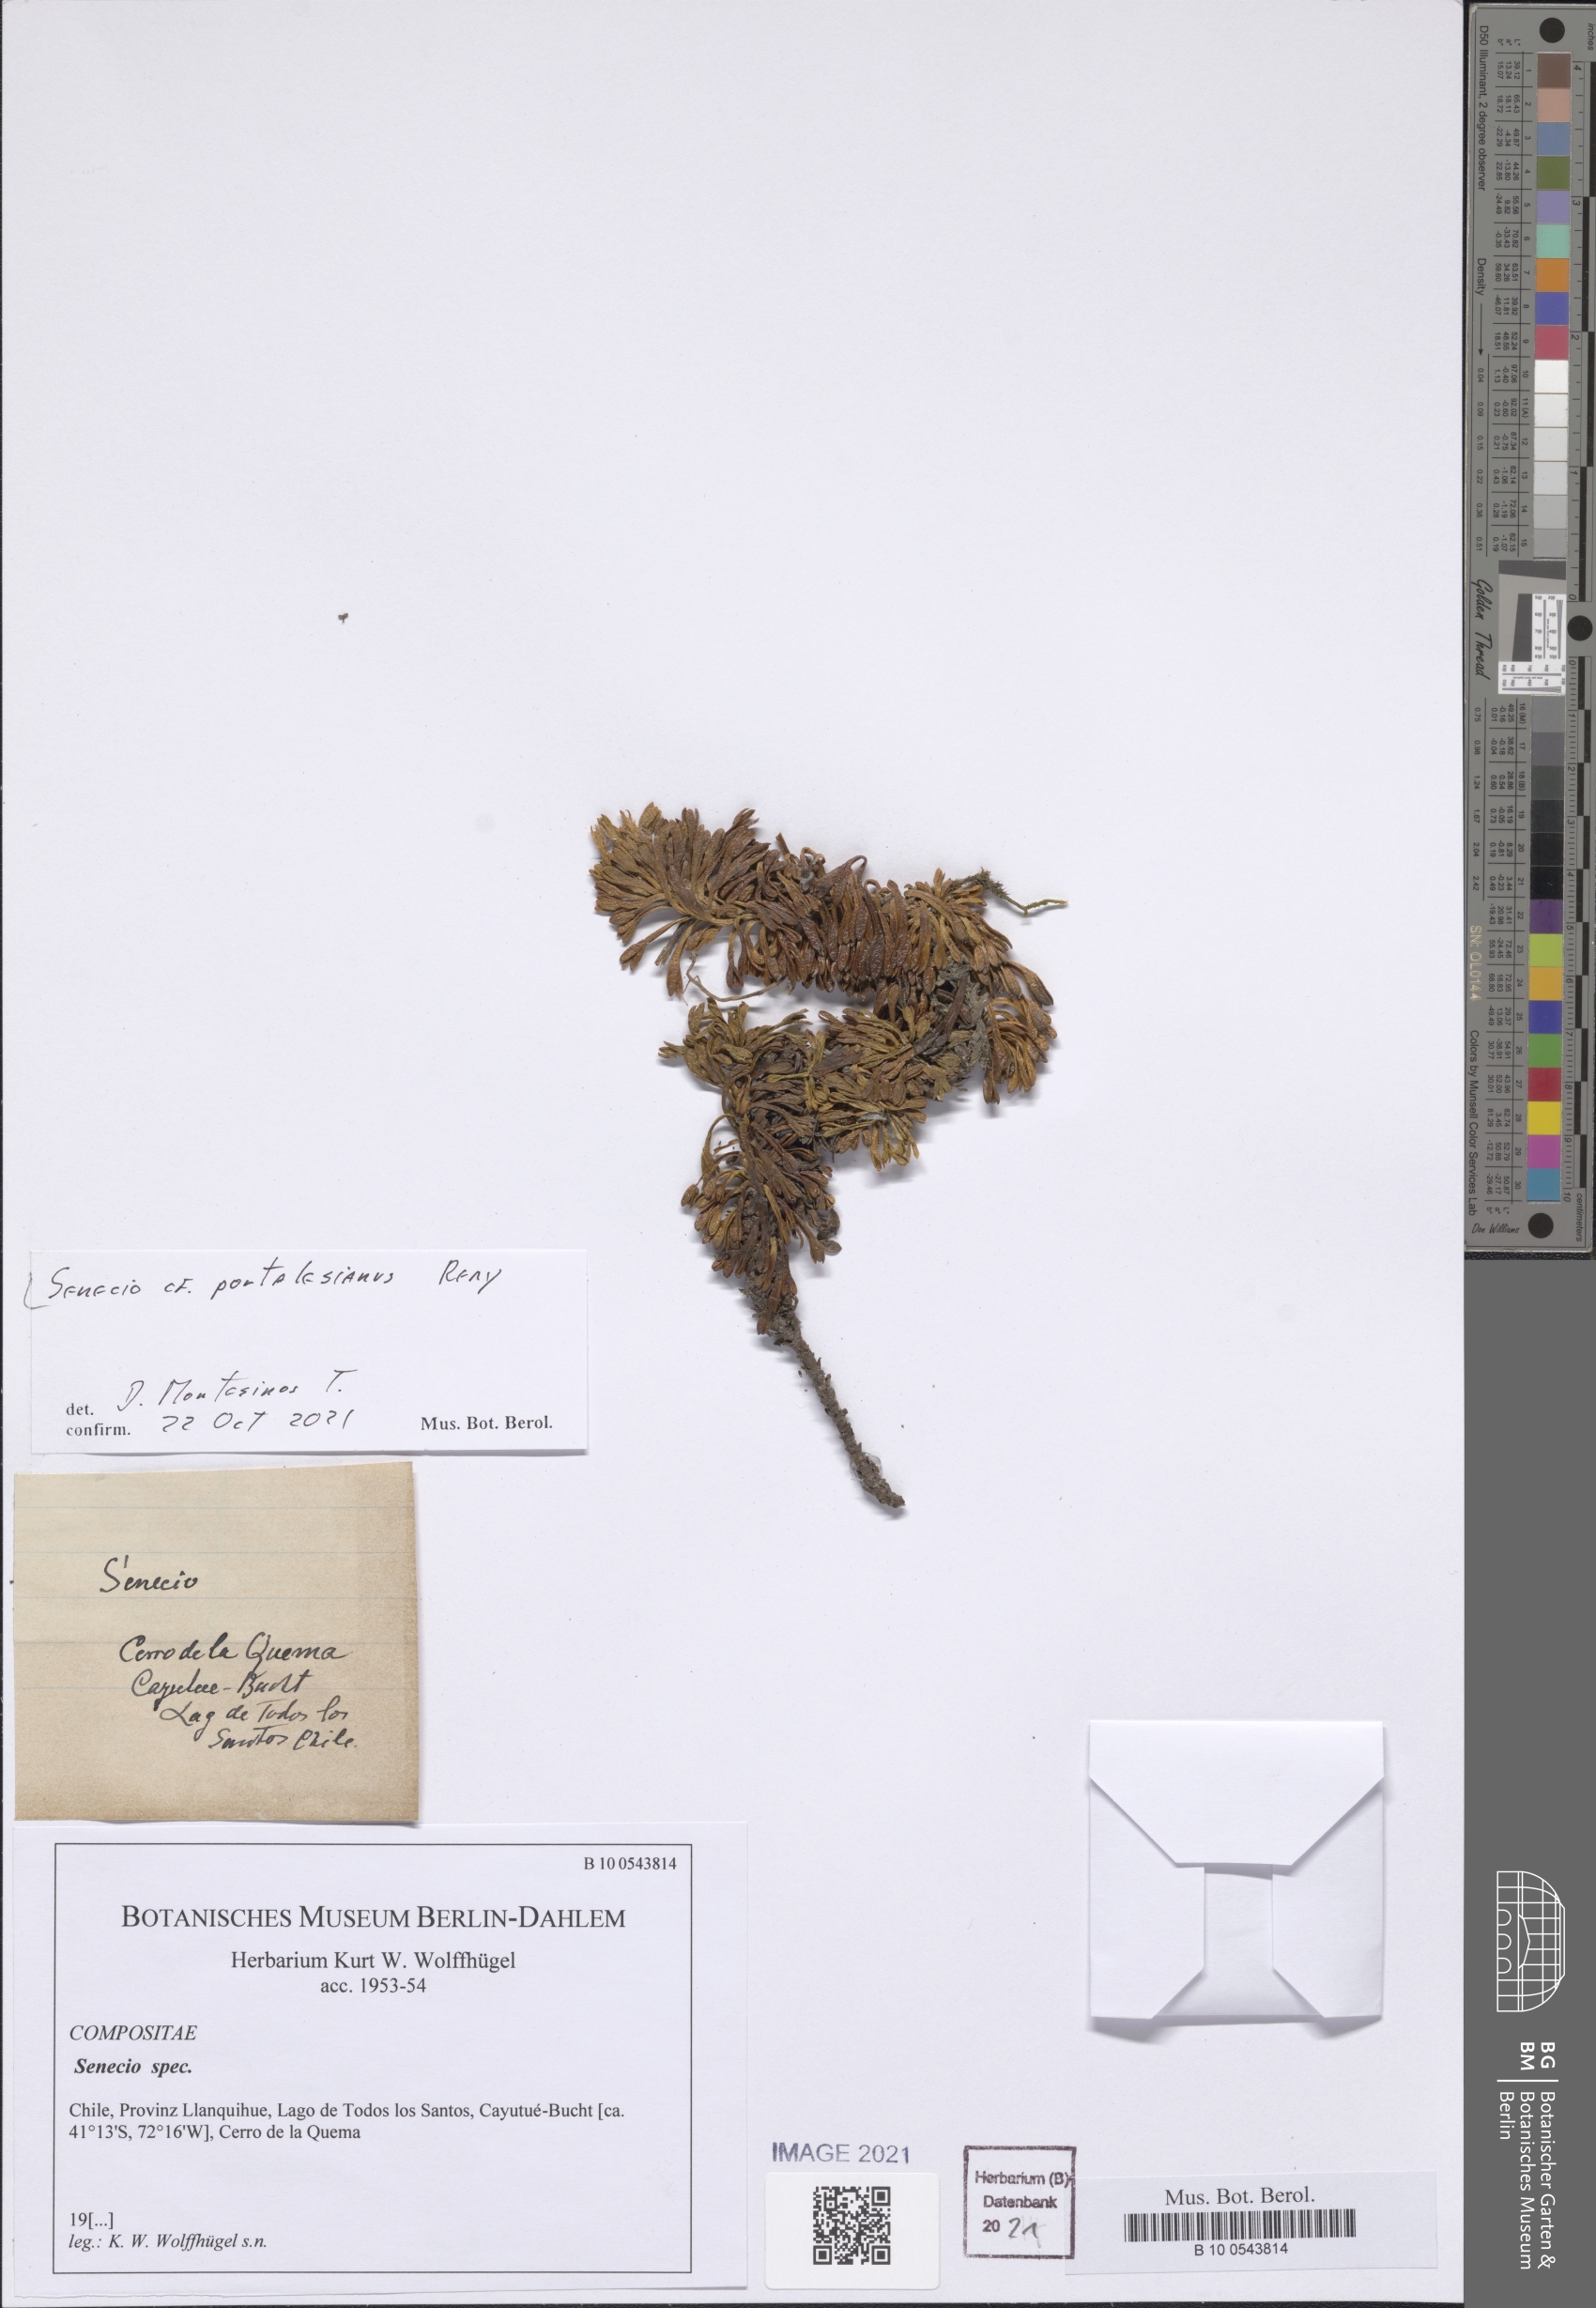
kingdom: Plantae
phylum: Tracheophyta
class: Magnoliopsida
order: Asterales
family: Asteraceae
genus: Senecio
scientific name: Senecio portalesianus
